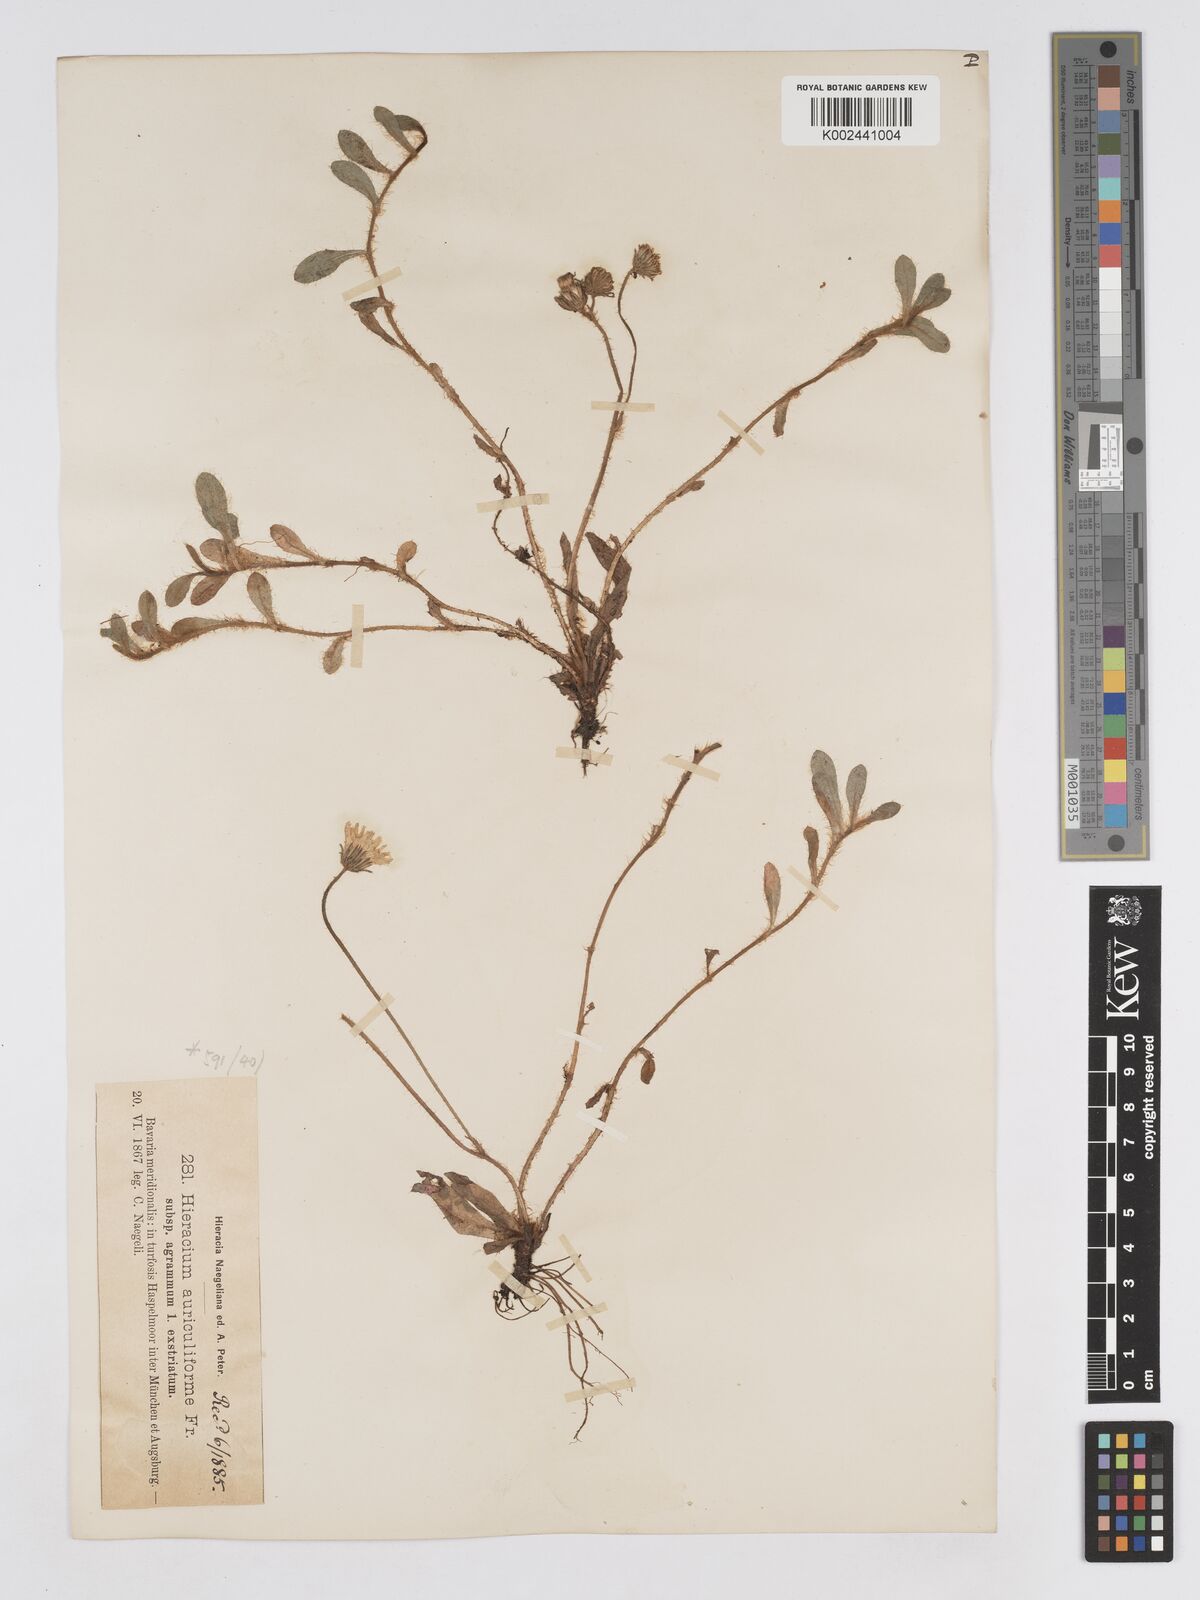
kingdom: Plantae
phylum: Tracheophyta
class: Magnoliopsida
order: Asterales
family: Asteraceae
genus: Pilosella
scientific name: Pilosella schultesii
